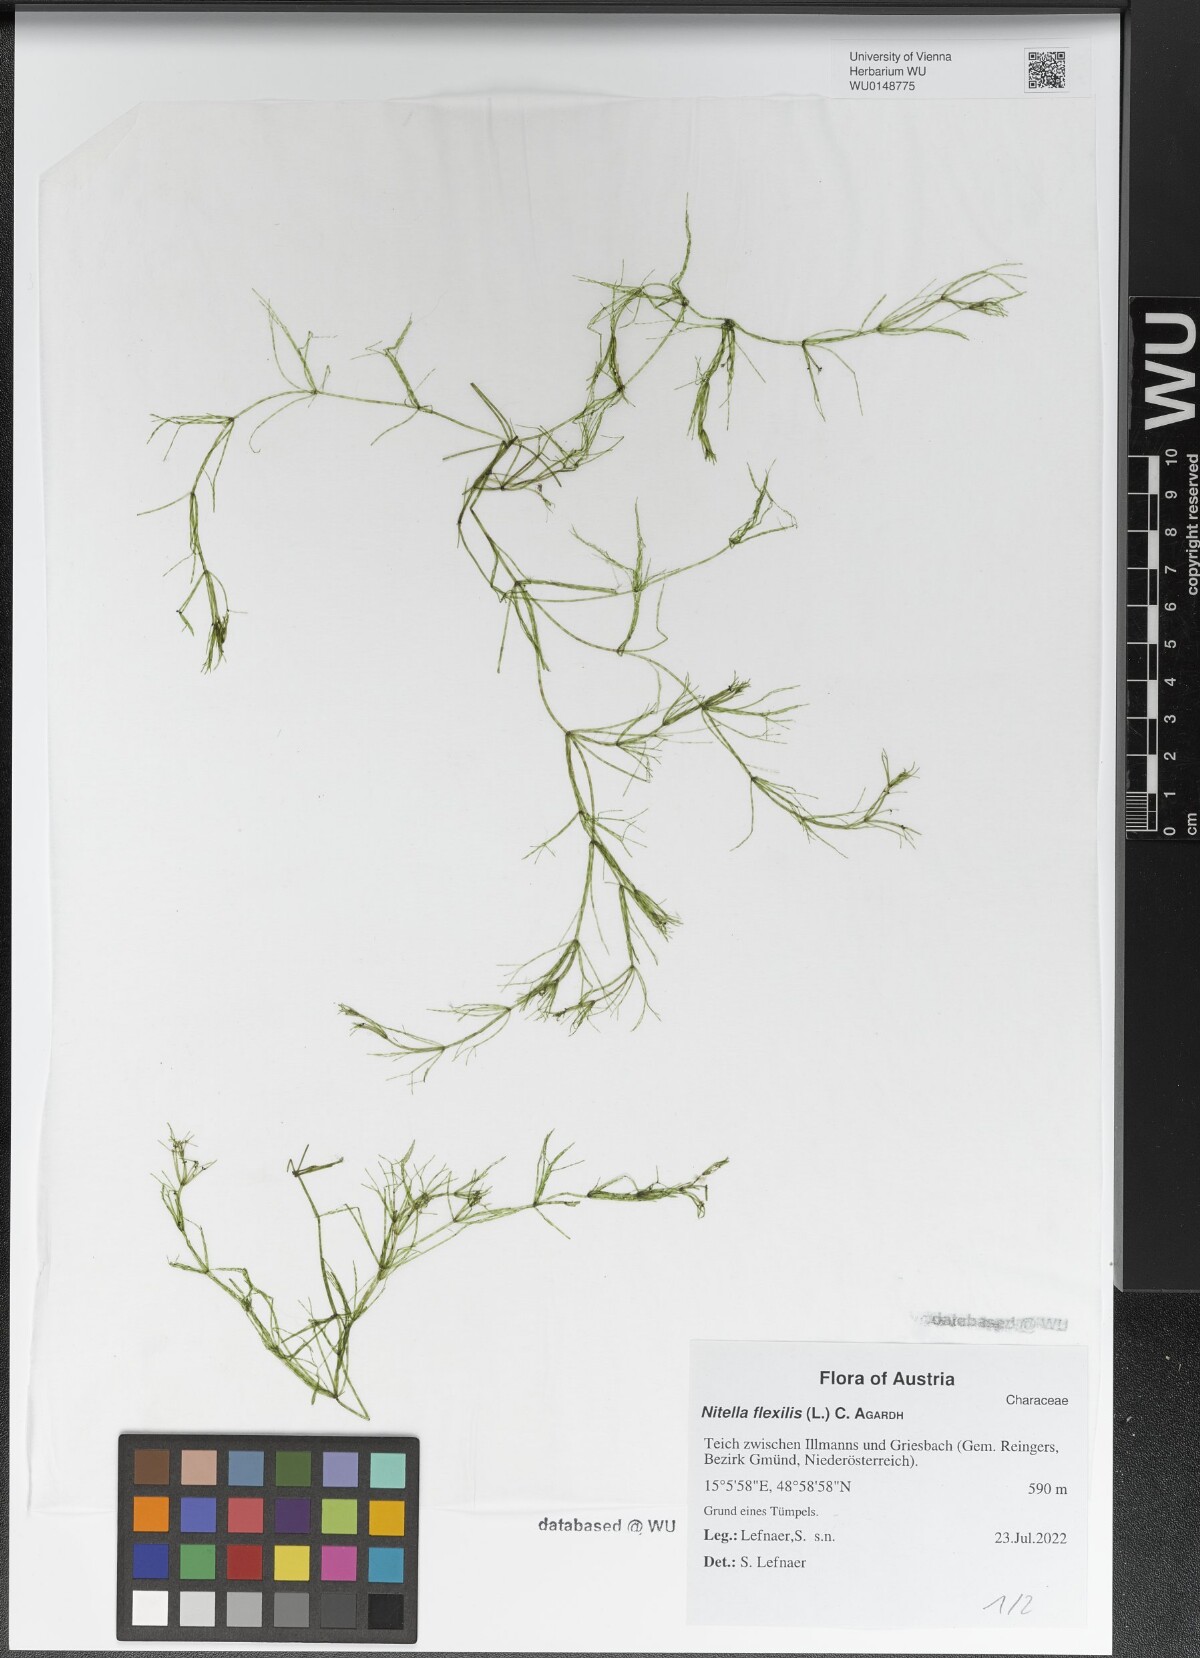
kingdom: Plantae
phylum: Charophyta
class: Charophyceae
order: Charales
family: Characeae
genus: Nitella
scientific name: Nitella flexilis
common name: Smooth stonewort
